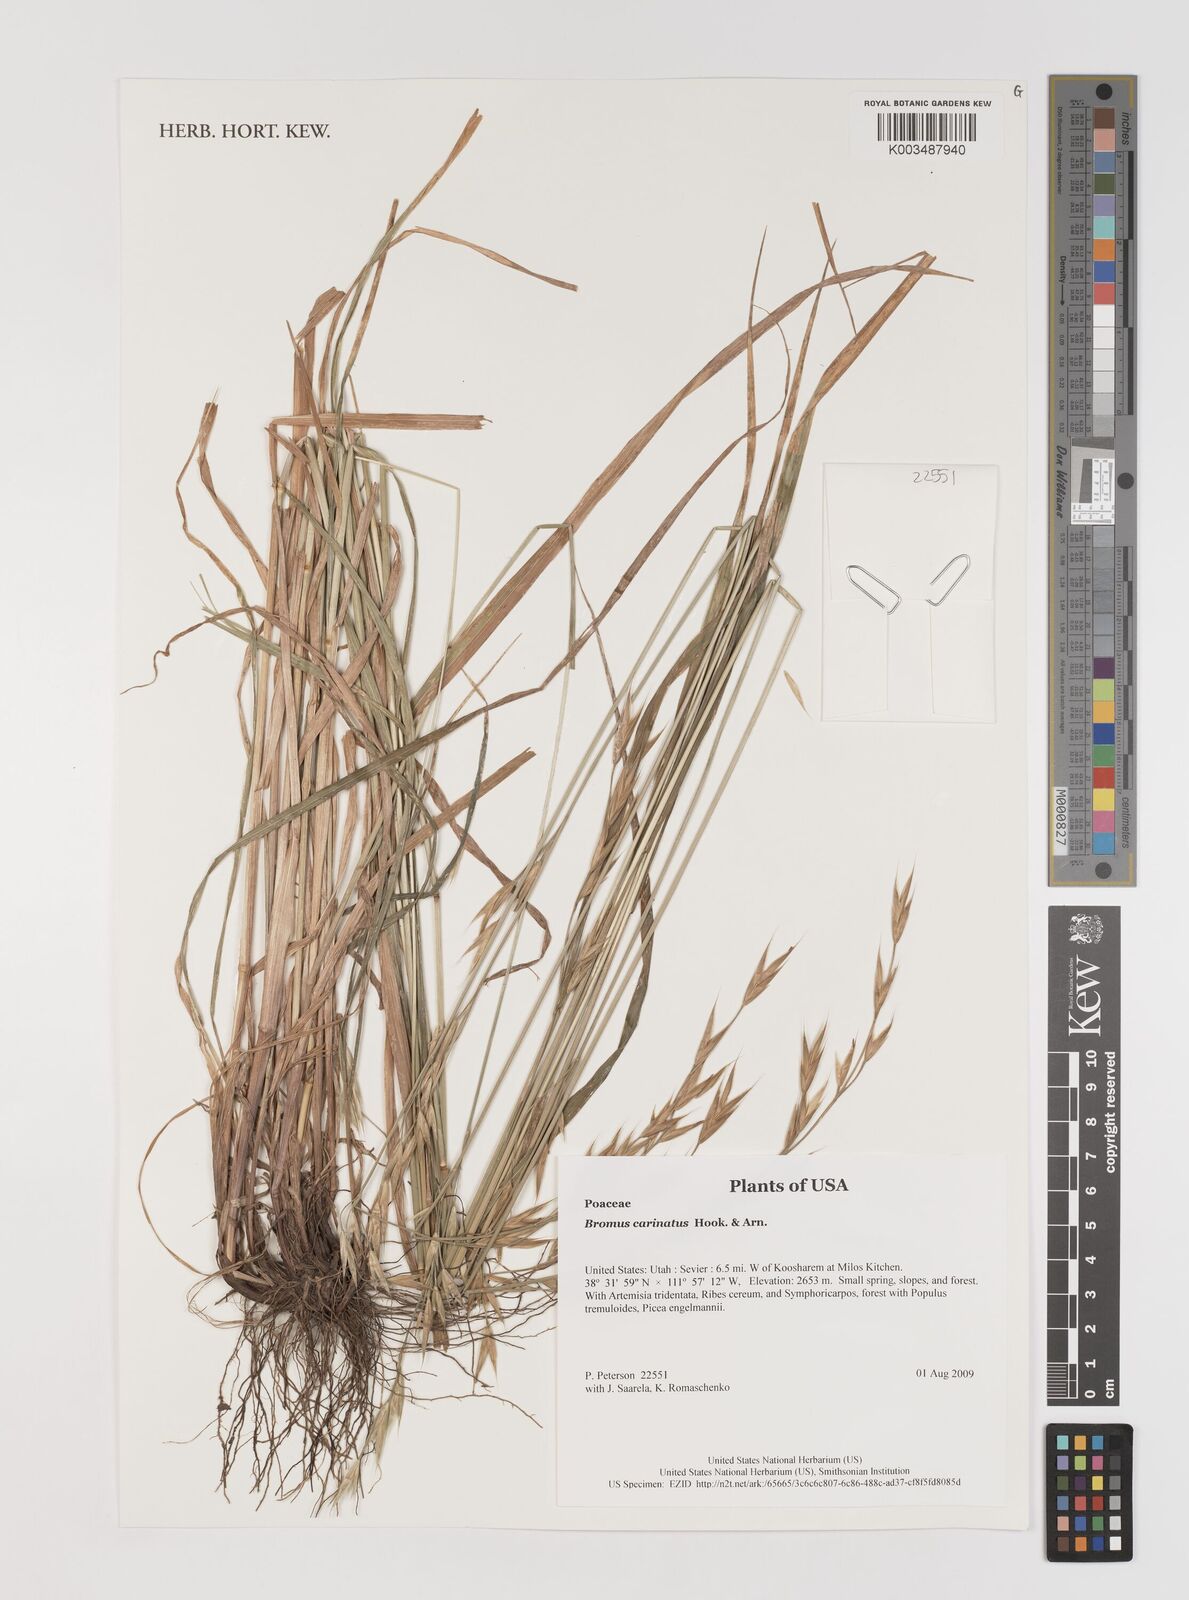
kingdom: Plantae
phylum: Tracheophyta
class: Liliopsida
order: Poales
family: Poaceae
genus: Bromus
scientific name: Bromus carinatus
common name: Mountain brome
